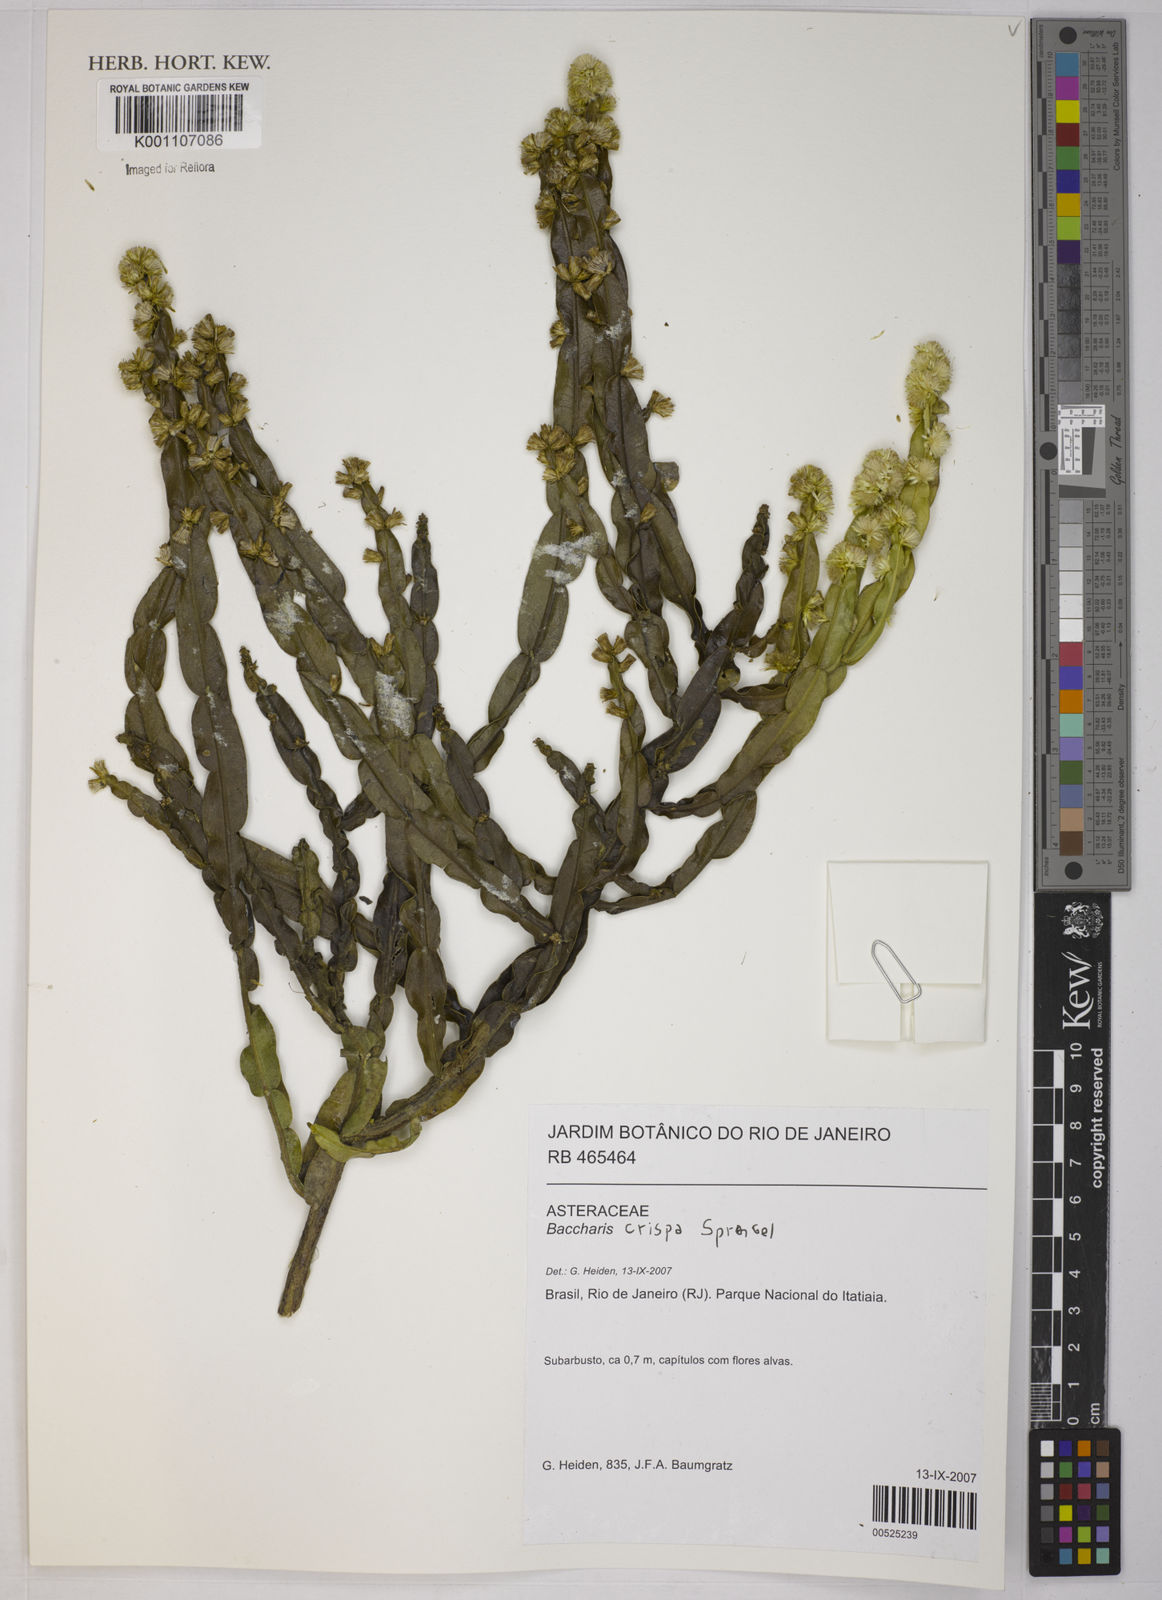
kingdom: Plantae
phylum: Tracheophyta
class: Magnoliopsida
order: Asterales
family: Asteraceae
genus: Baccharis
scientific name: Baccharis crispa
